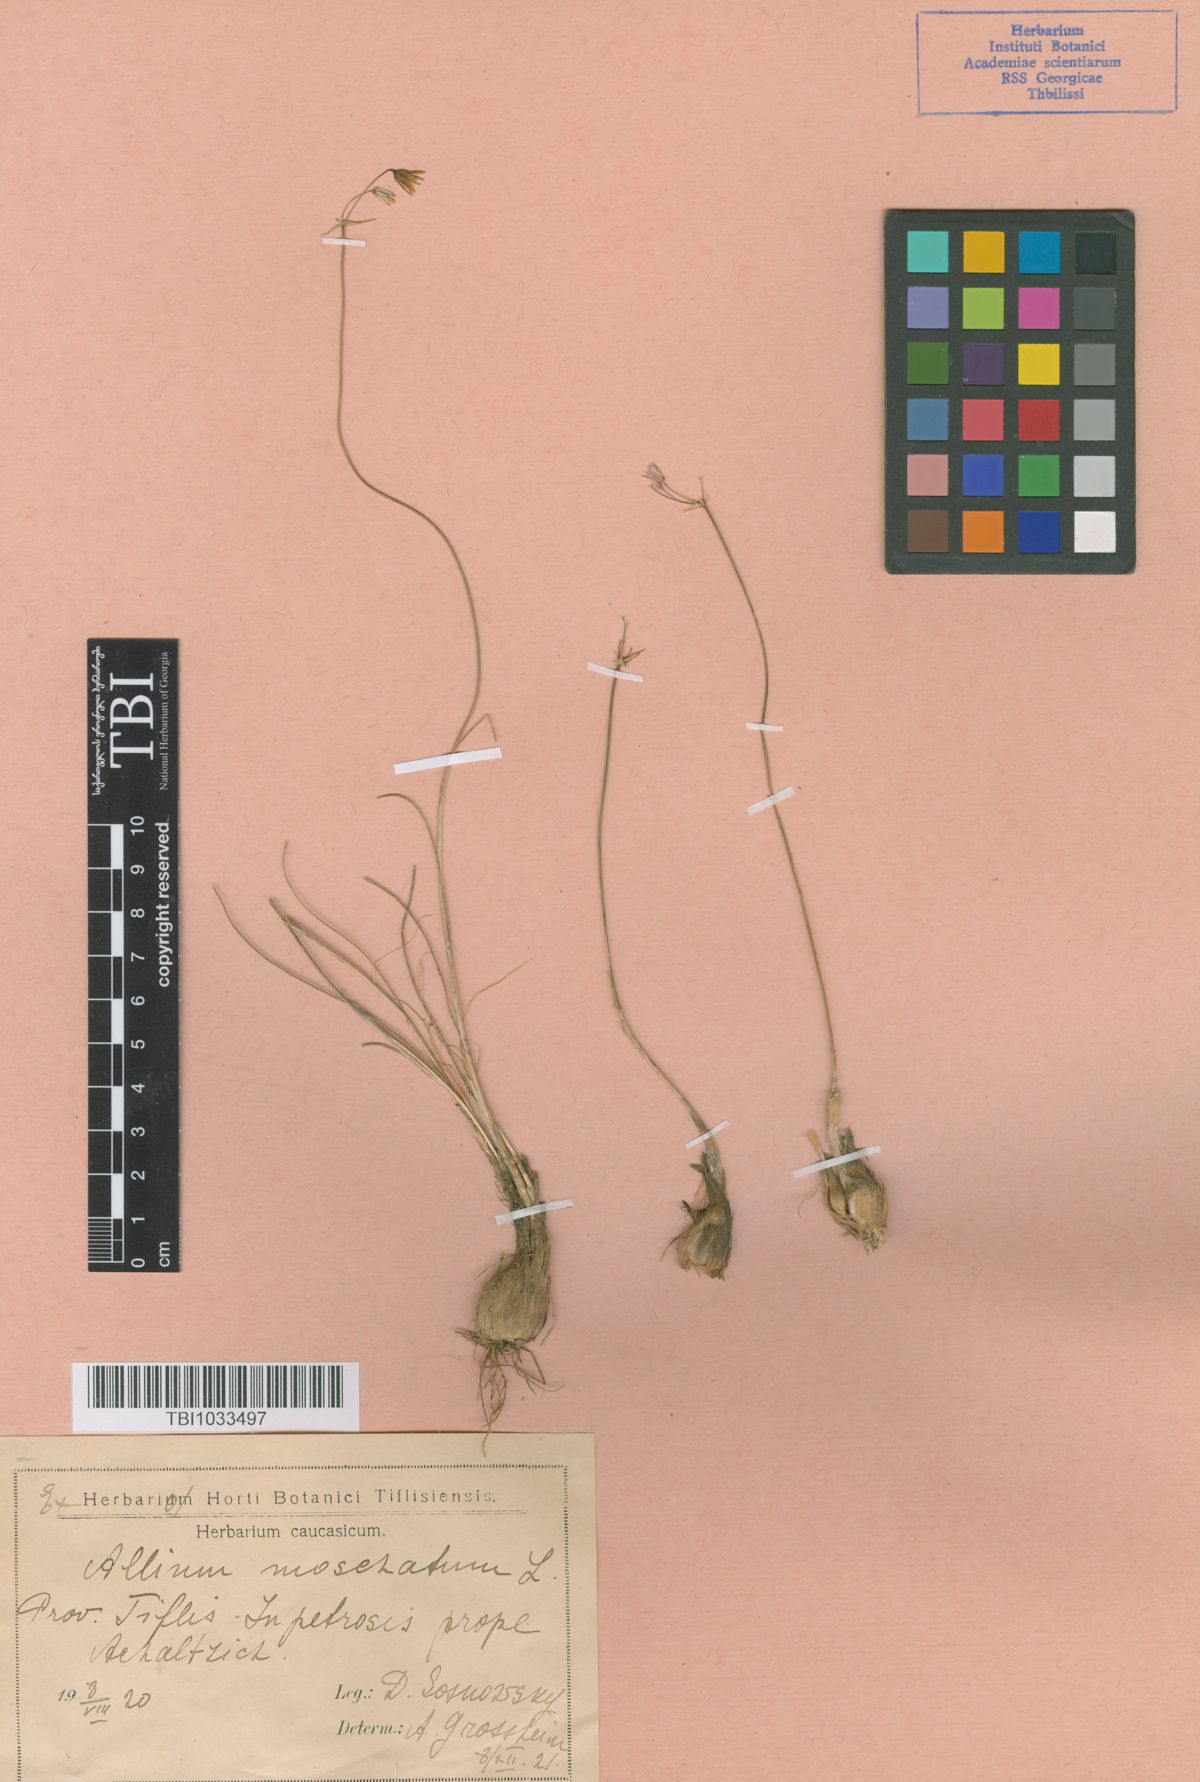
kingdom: Plantae
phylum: Tracheophyta
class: Liliopsida
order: Asparagales
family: Amaryllidaceae
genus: Allium
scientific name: Allium moschatum
